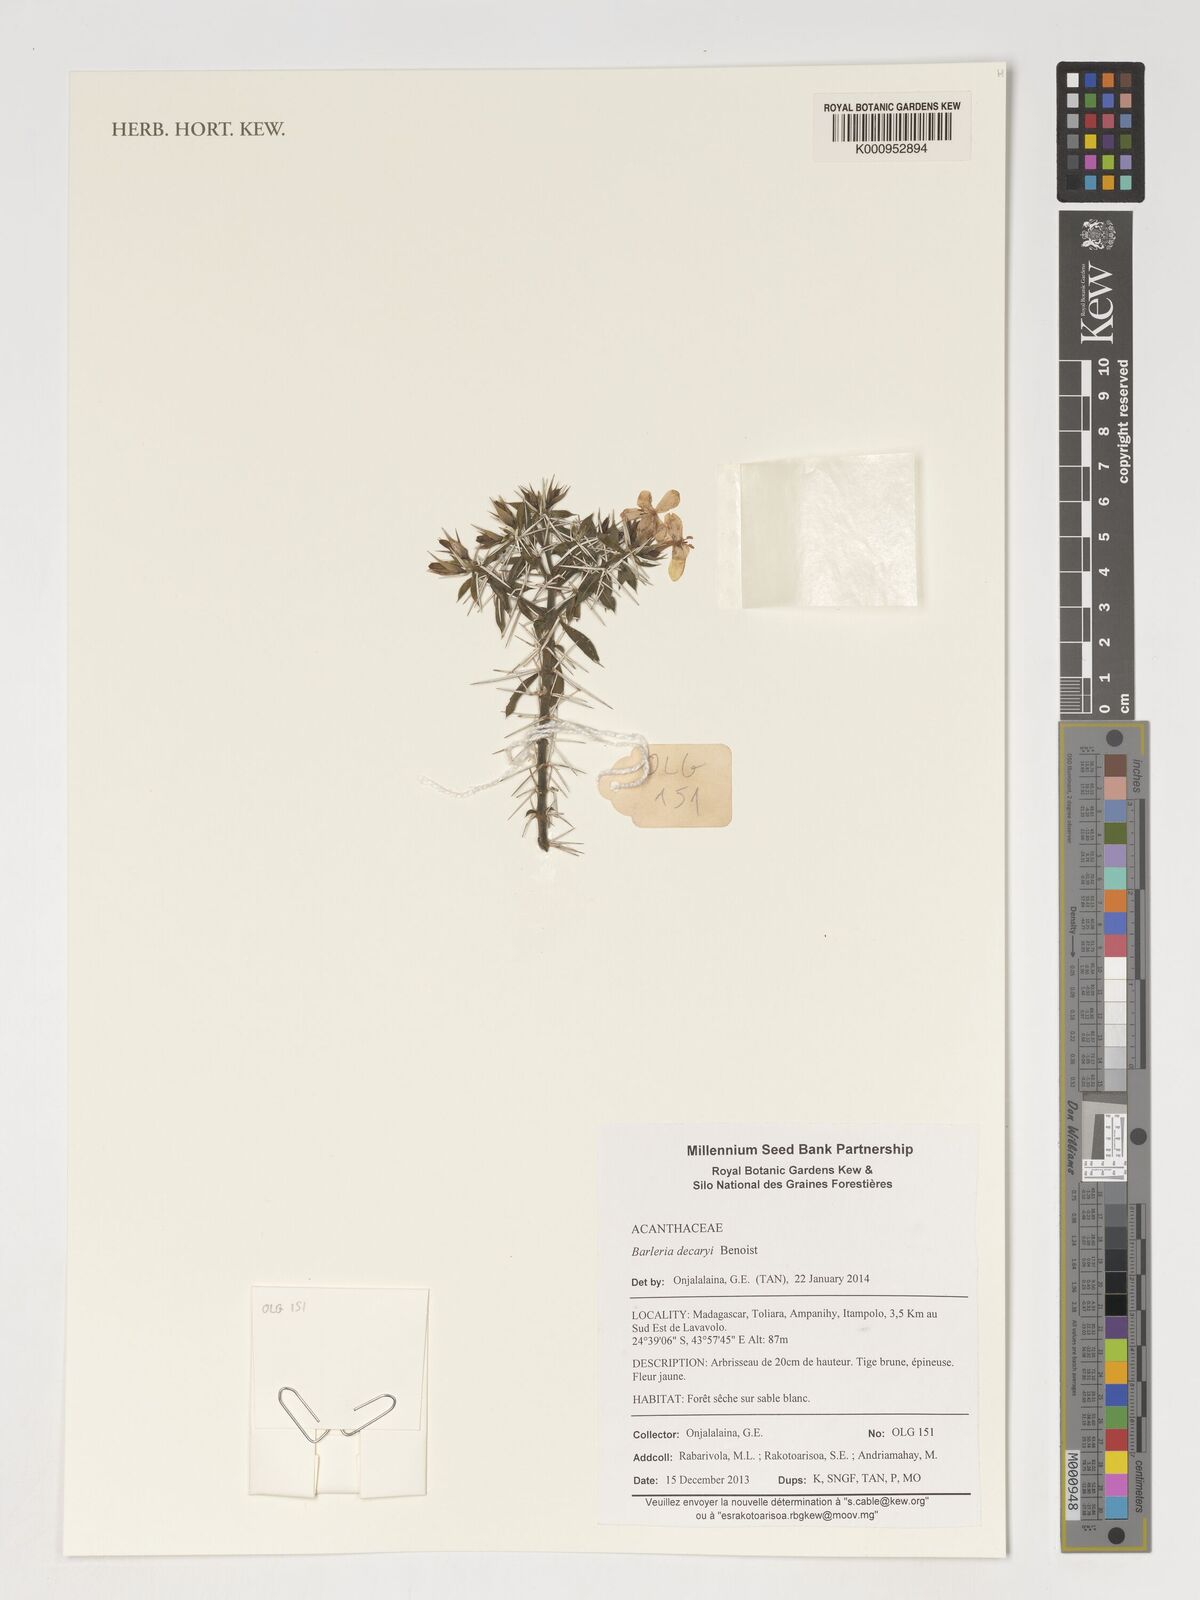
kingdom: Plantae
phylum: Tracheophyta
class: Magnoliopsida
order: Lamiales
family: Acanthaceae
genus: Barleria
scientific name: Barleria decaryi
